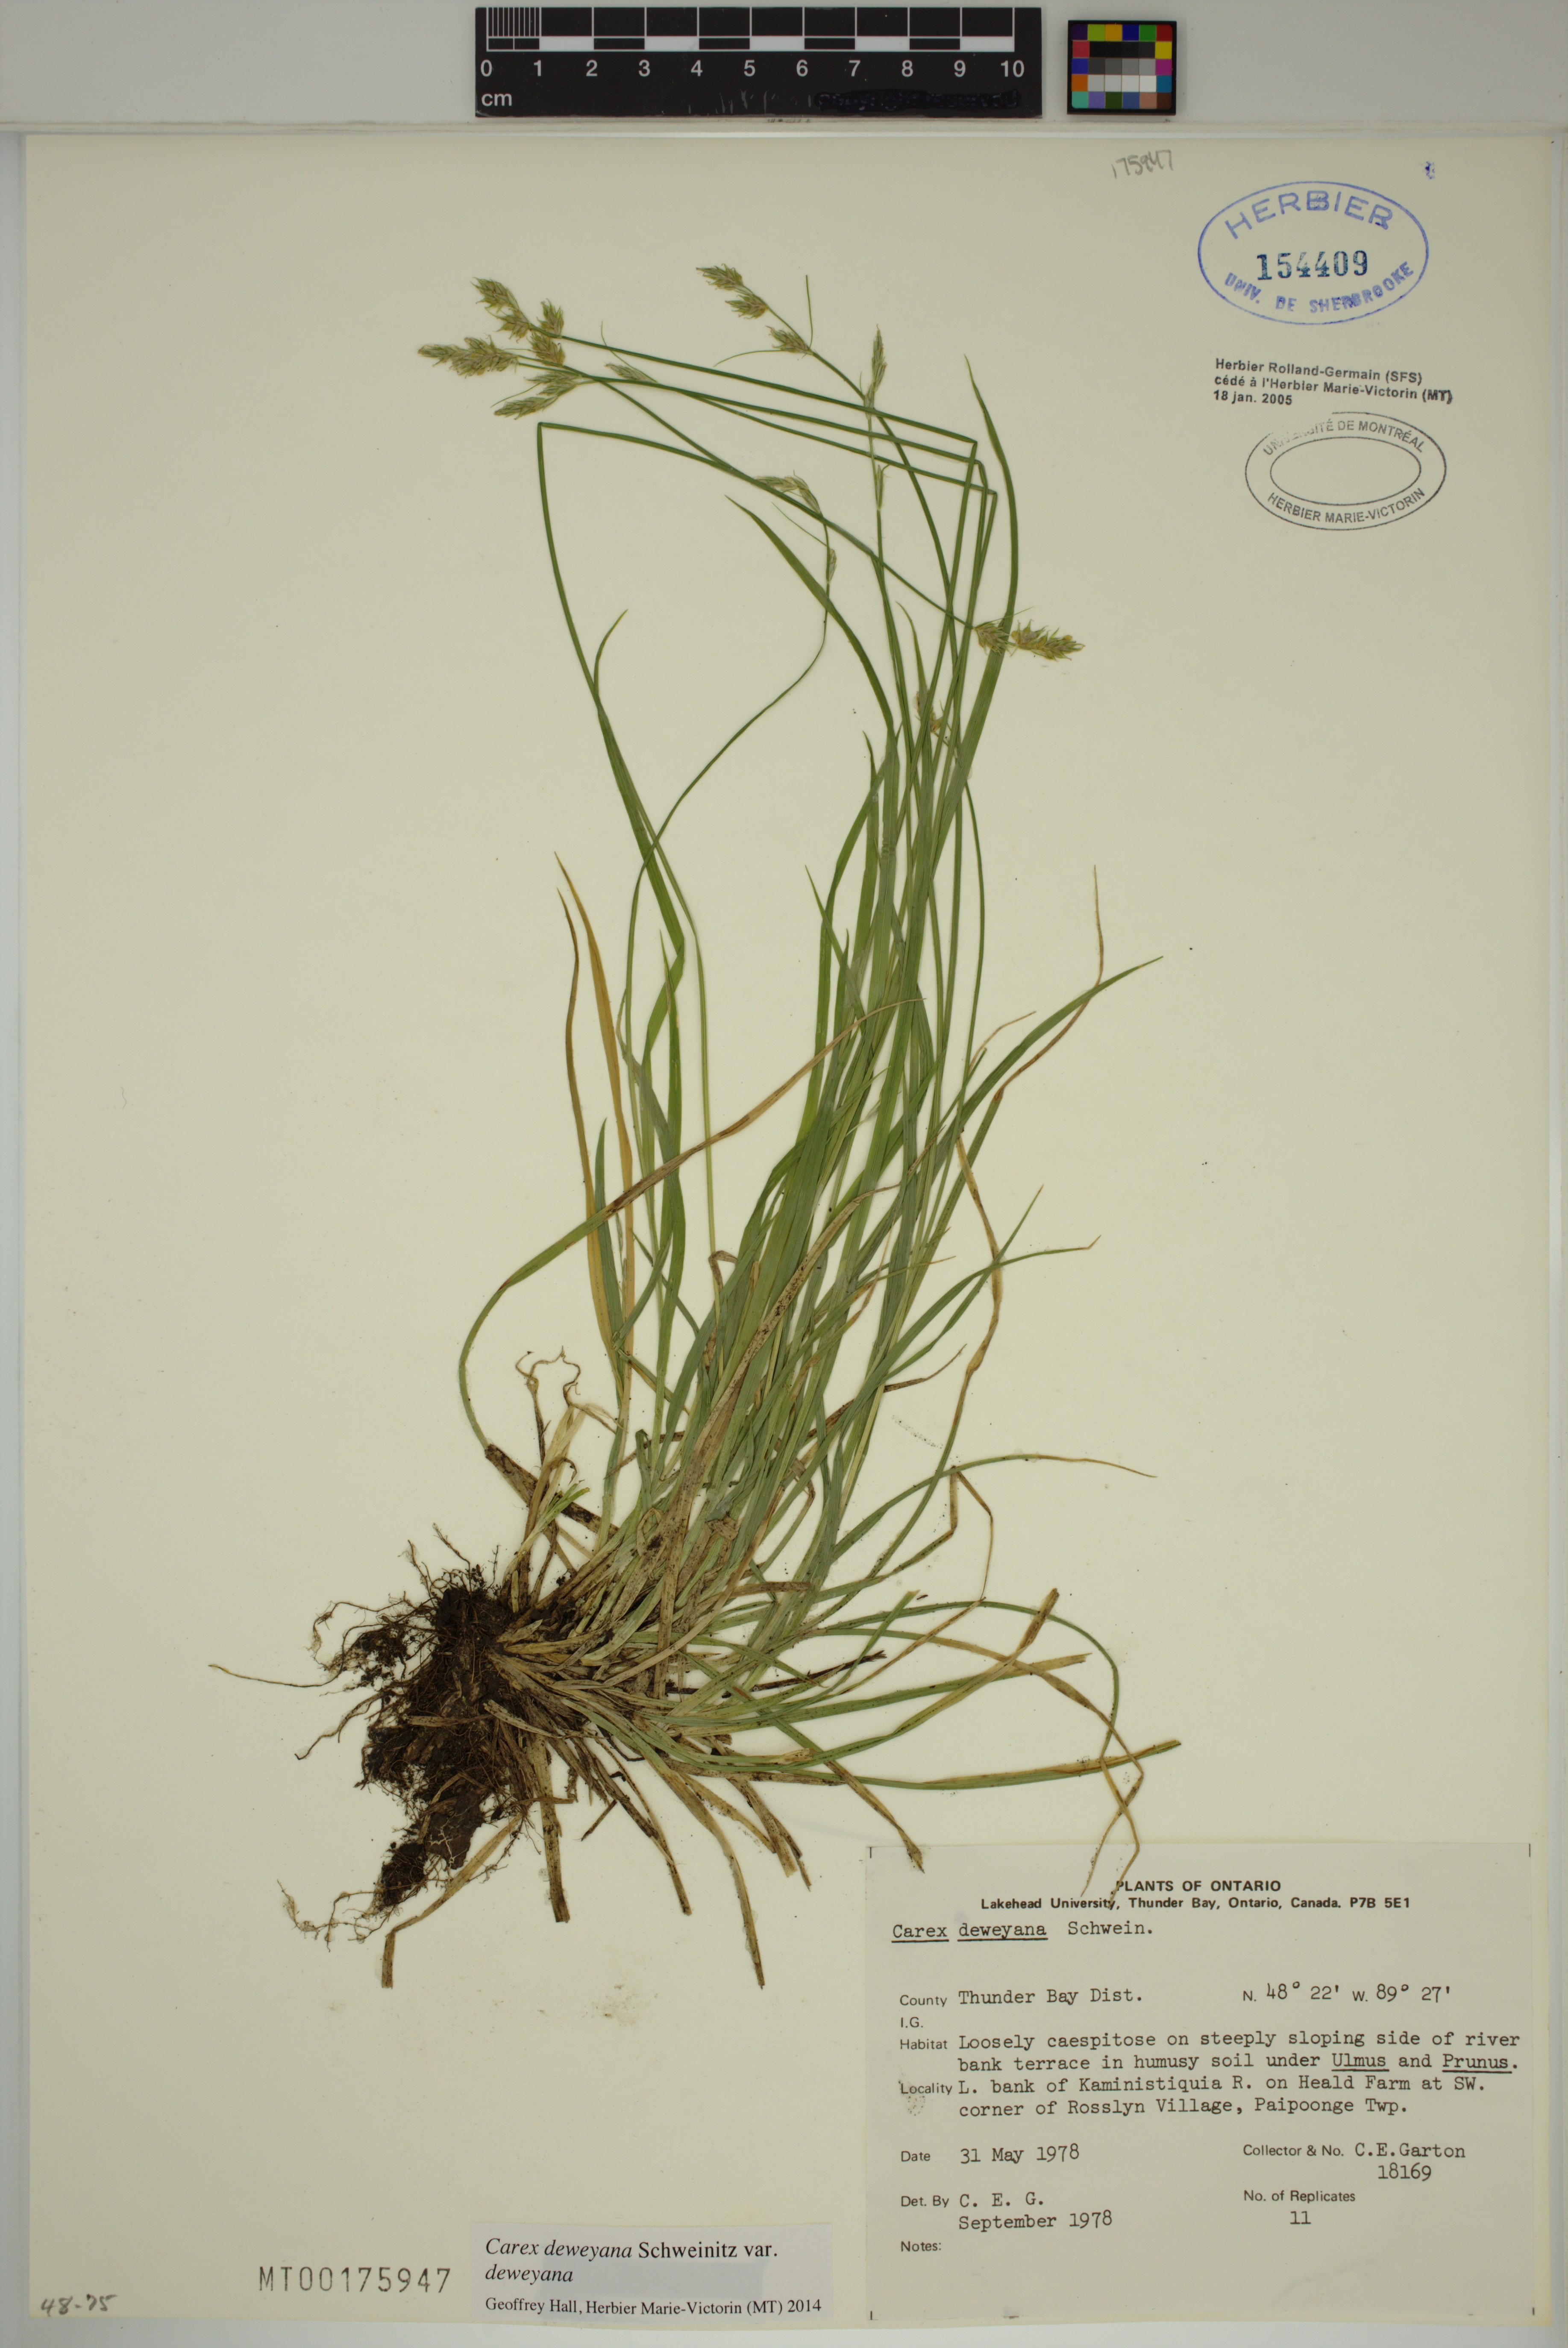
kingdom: Plantae
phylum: Tracheophyta
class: Liliopsida
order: Poales
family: Cyperaceae
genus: Carex
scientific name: Carex deweyana
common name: Dewey's sedge
